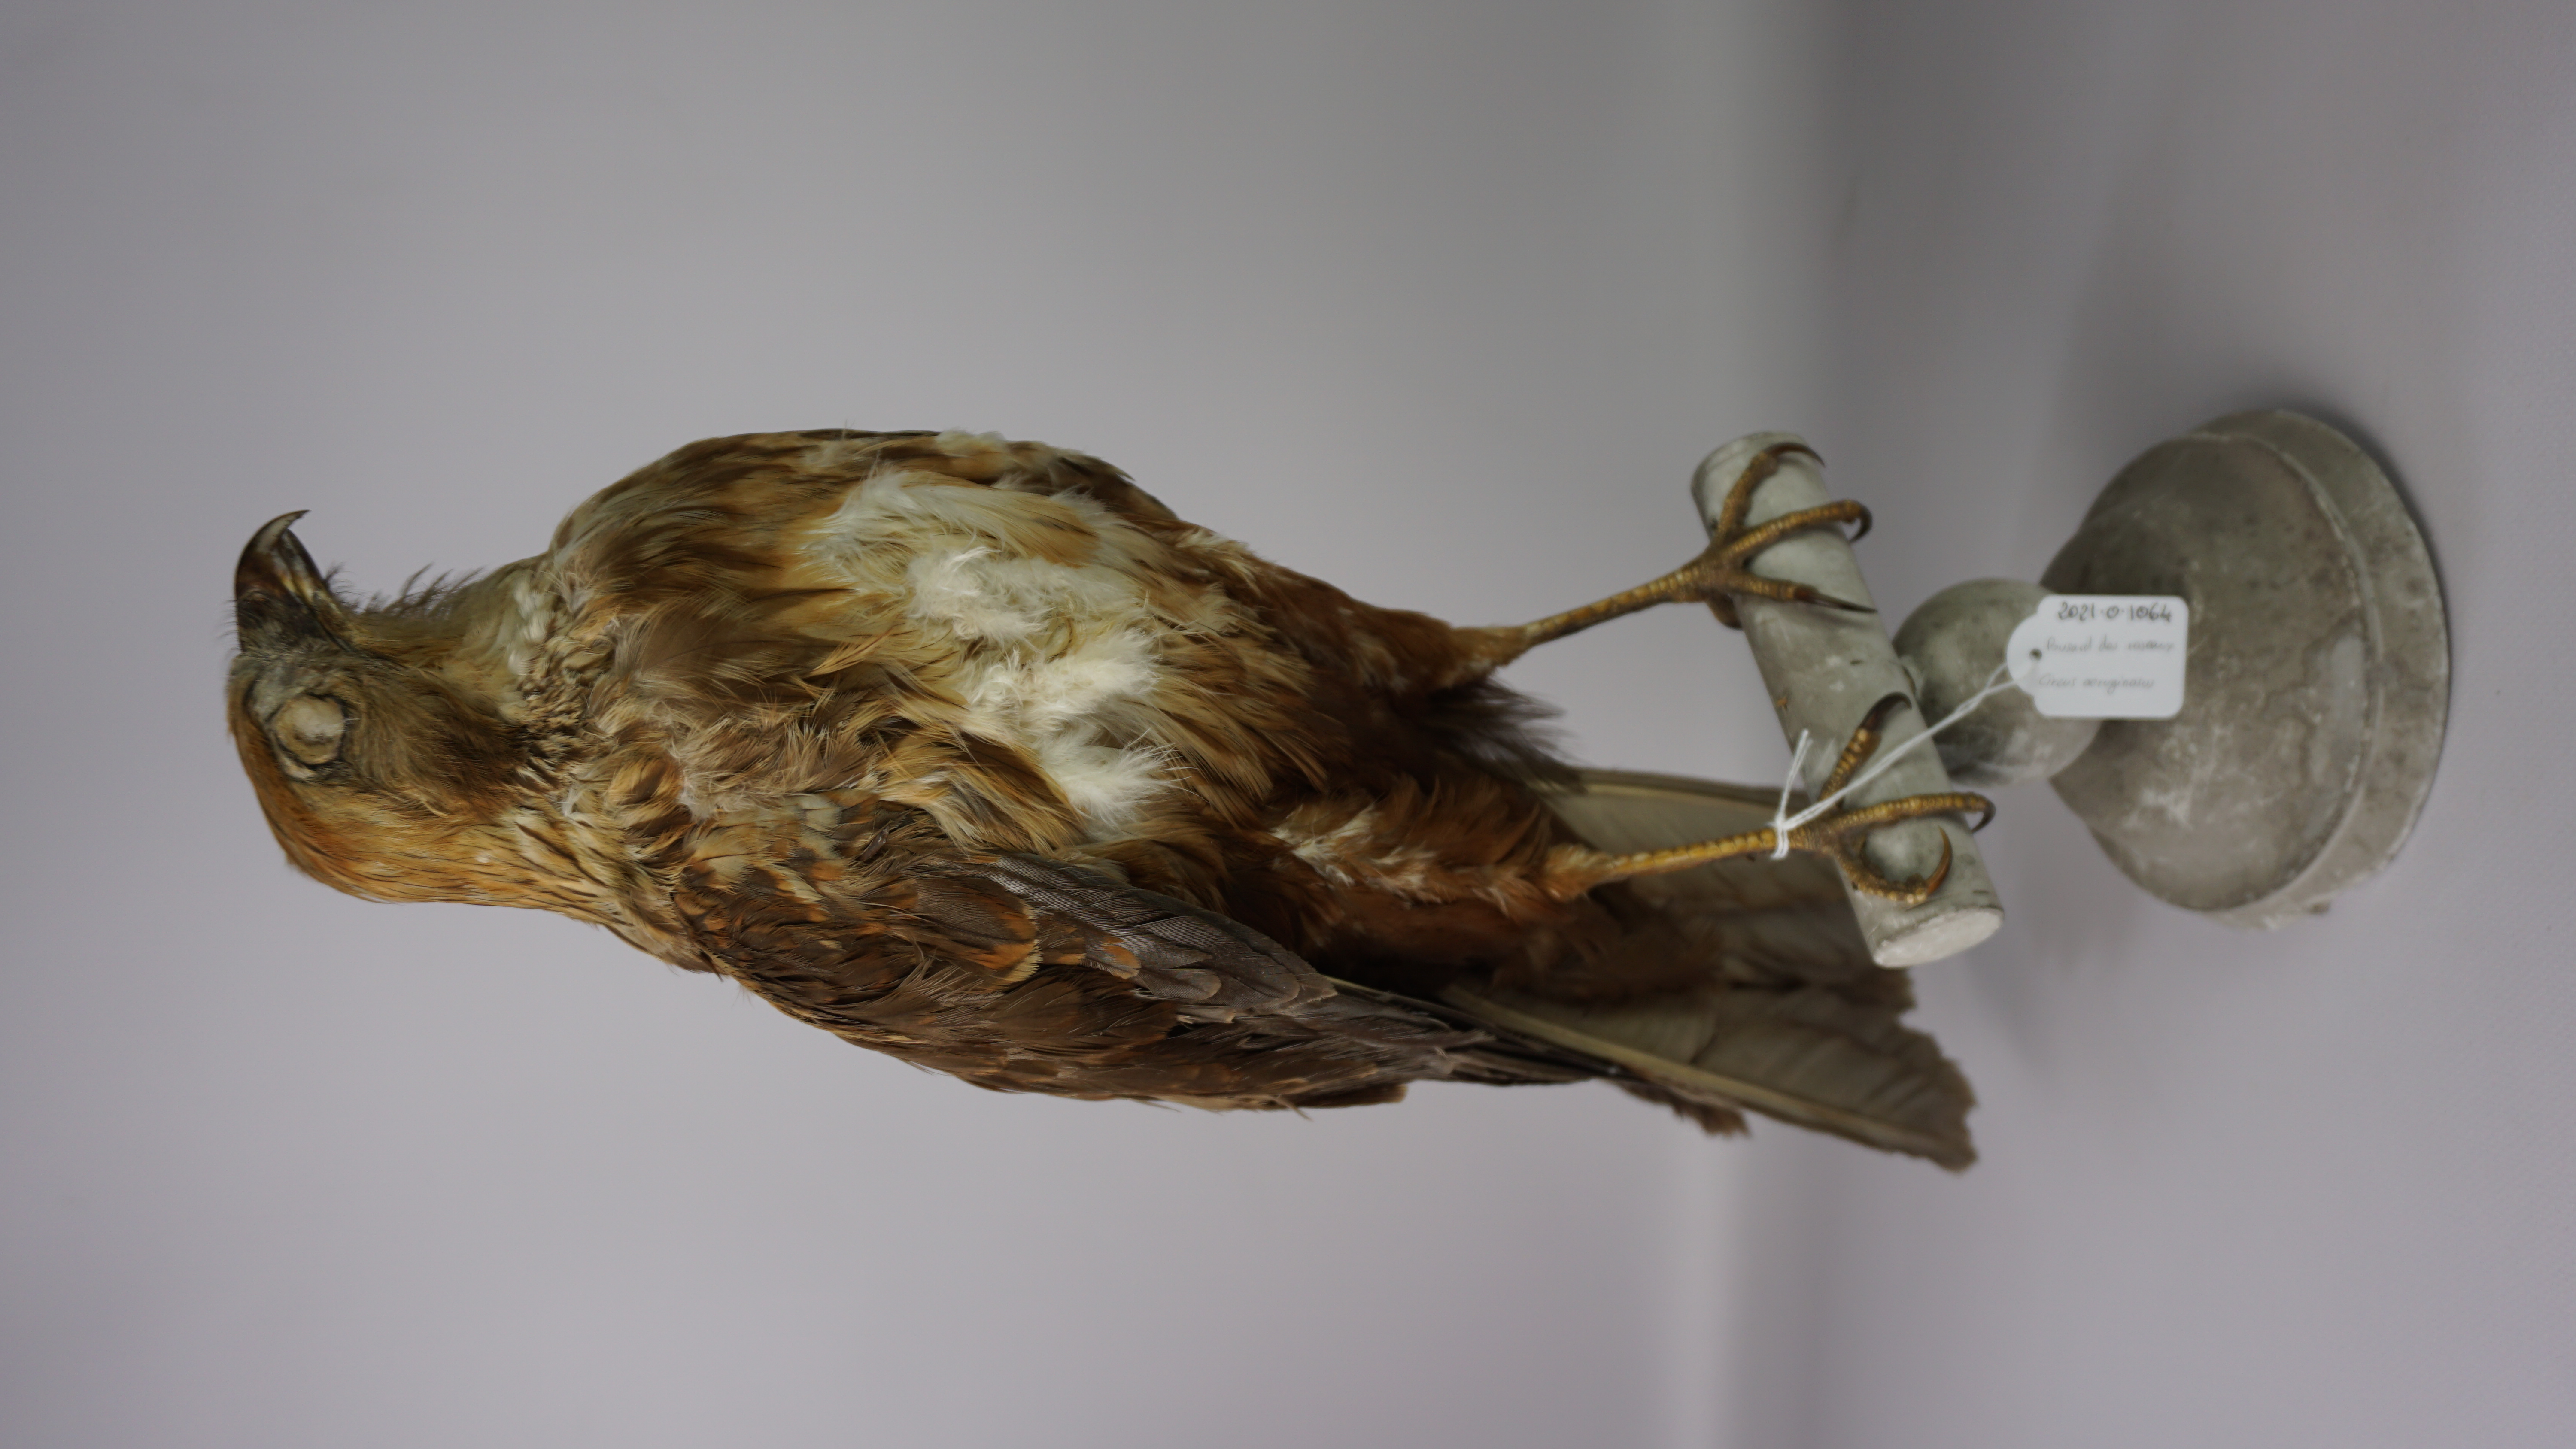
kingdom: Animalia
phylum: Chordata
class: Aves
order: Accipitriformes
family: Accipitridae
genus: Circus
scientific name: Circus aeruginosus
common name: Western marsh harrier
